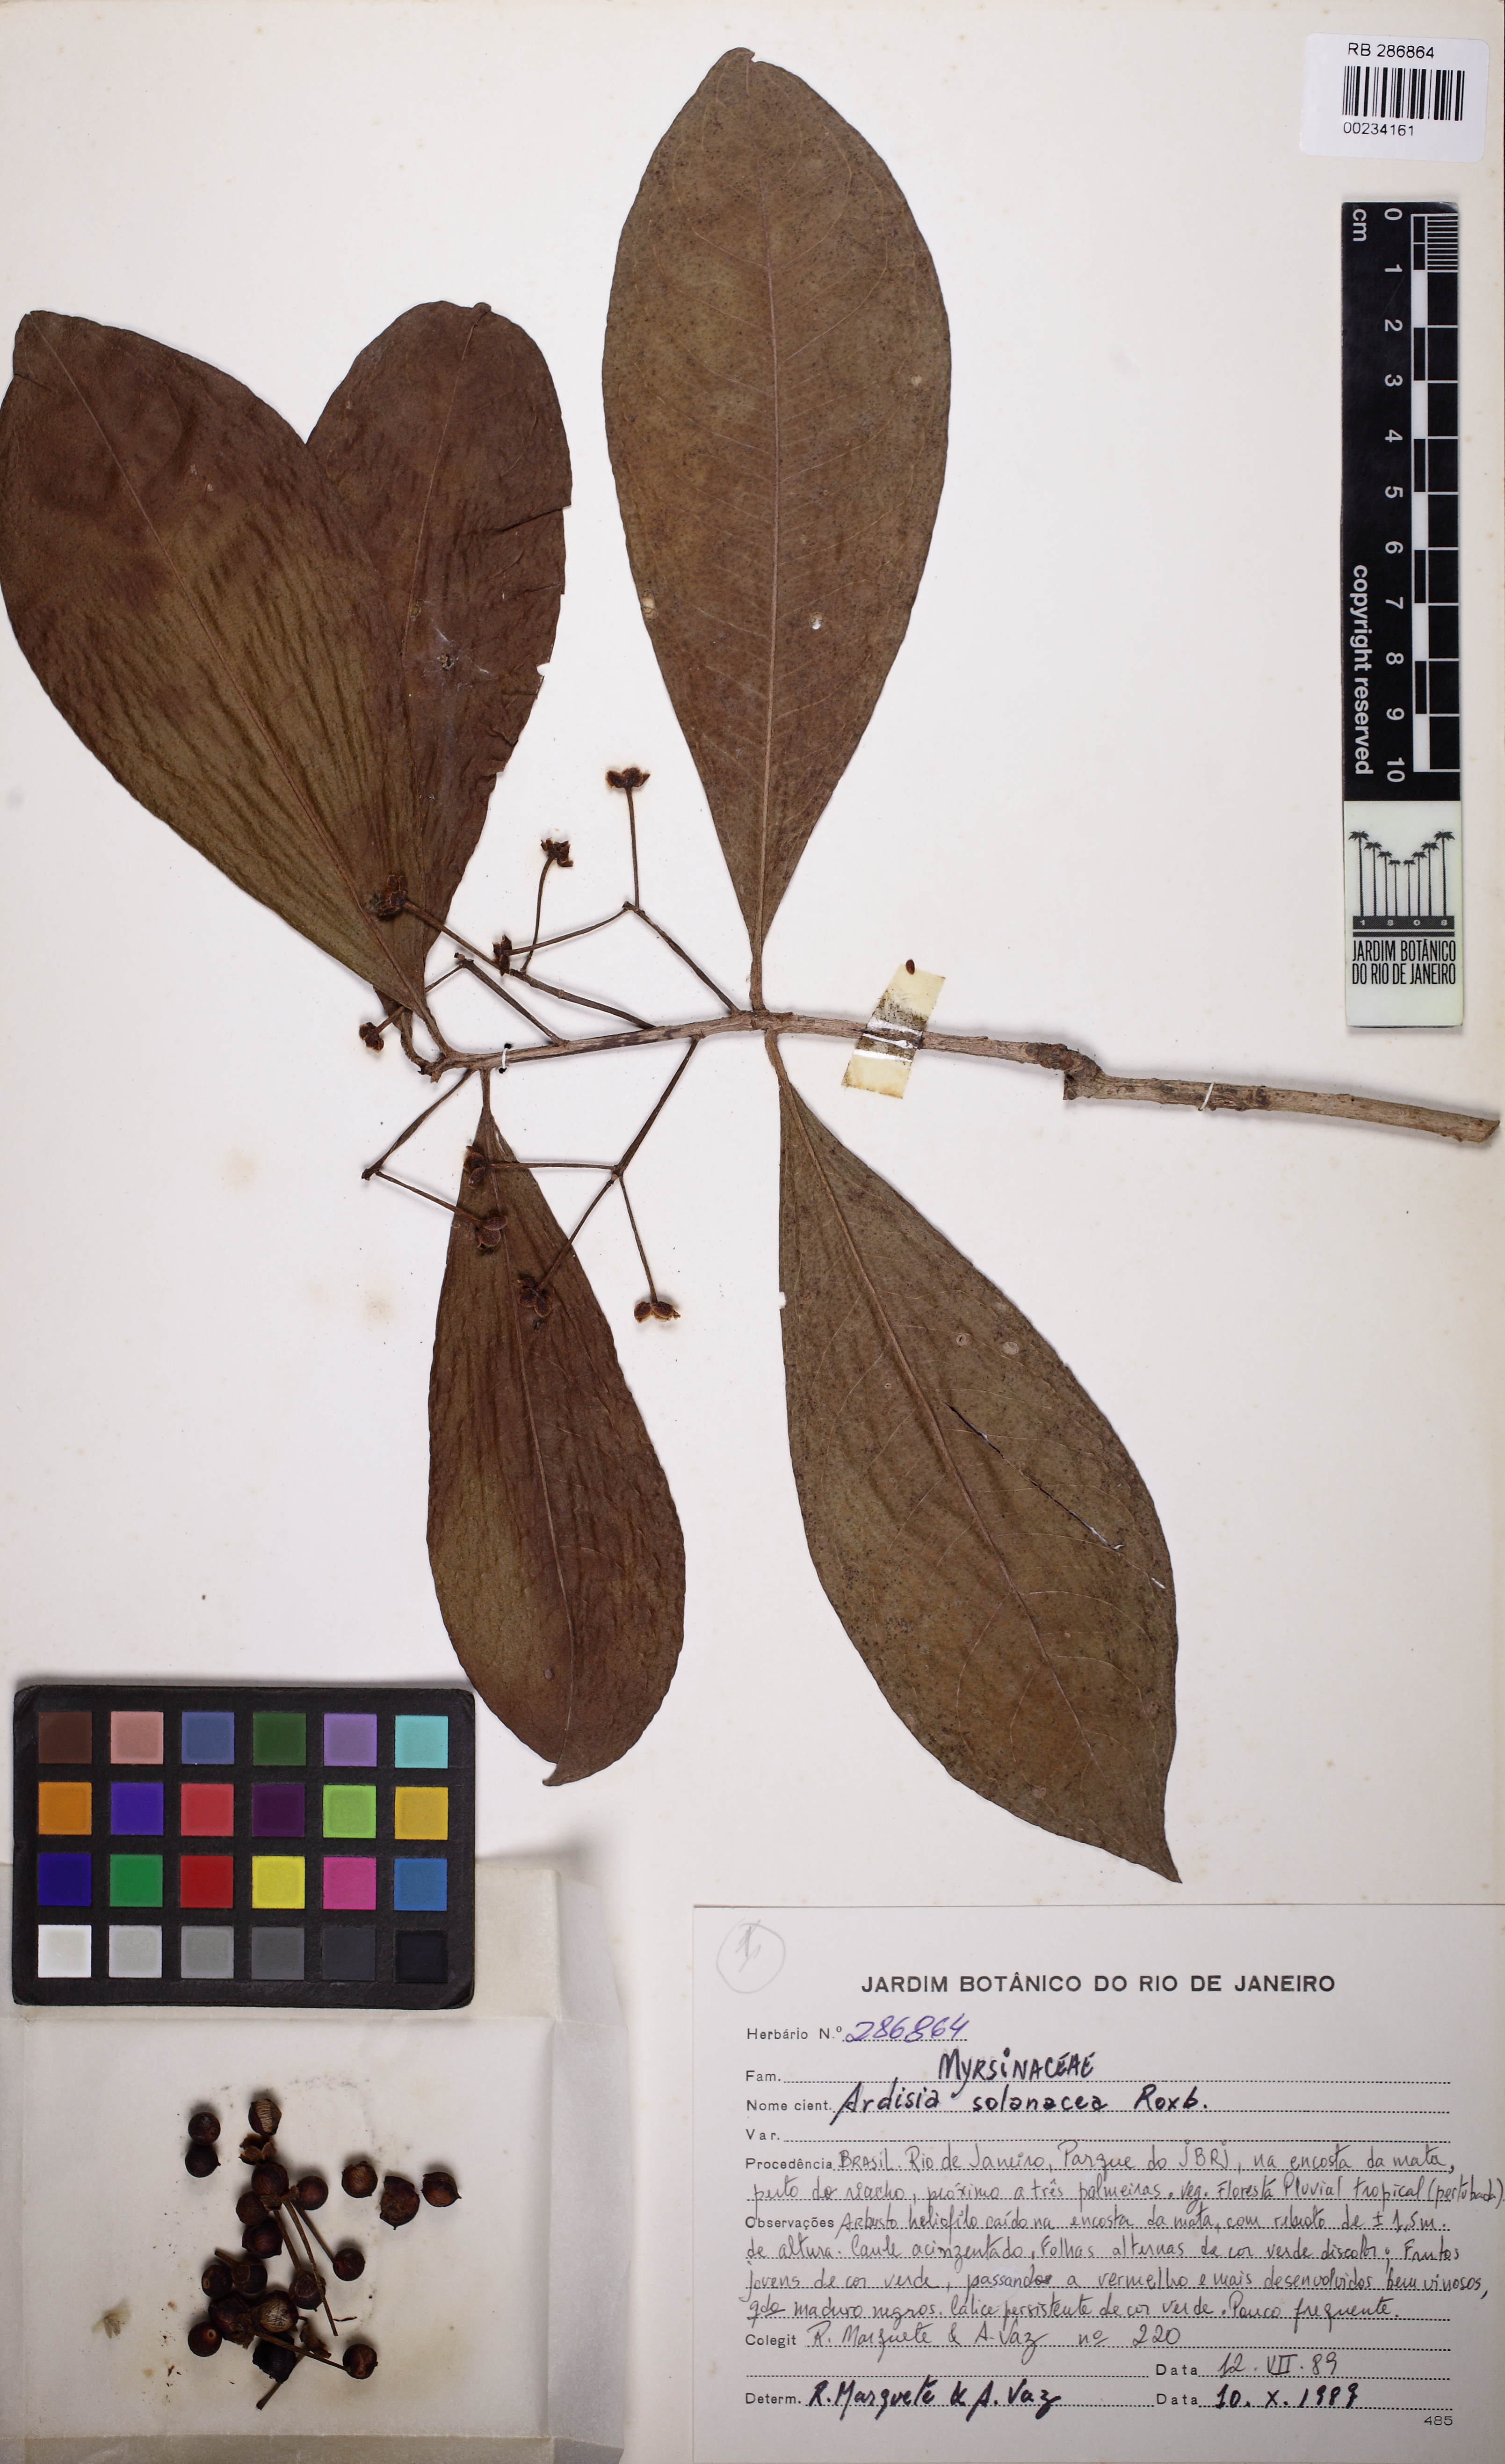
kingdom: Plantae
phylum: Tracheophyta
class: Magnoliopsida
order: Ericales
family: Primulaceae
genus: Ardisia
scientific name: Ardisia humilis
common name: Low shoebutton
